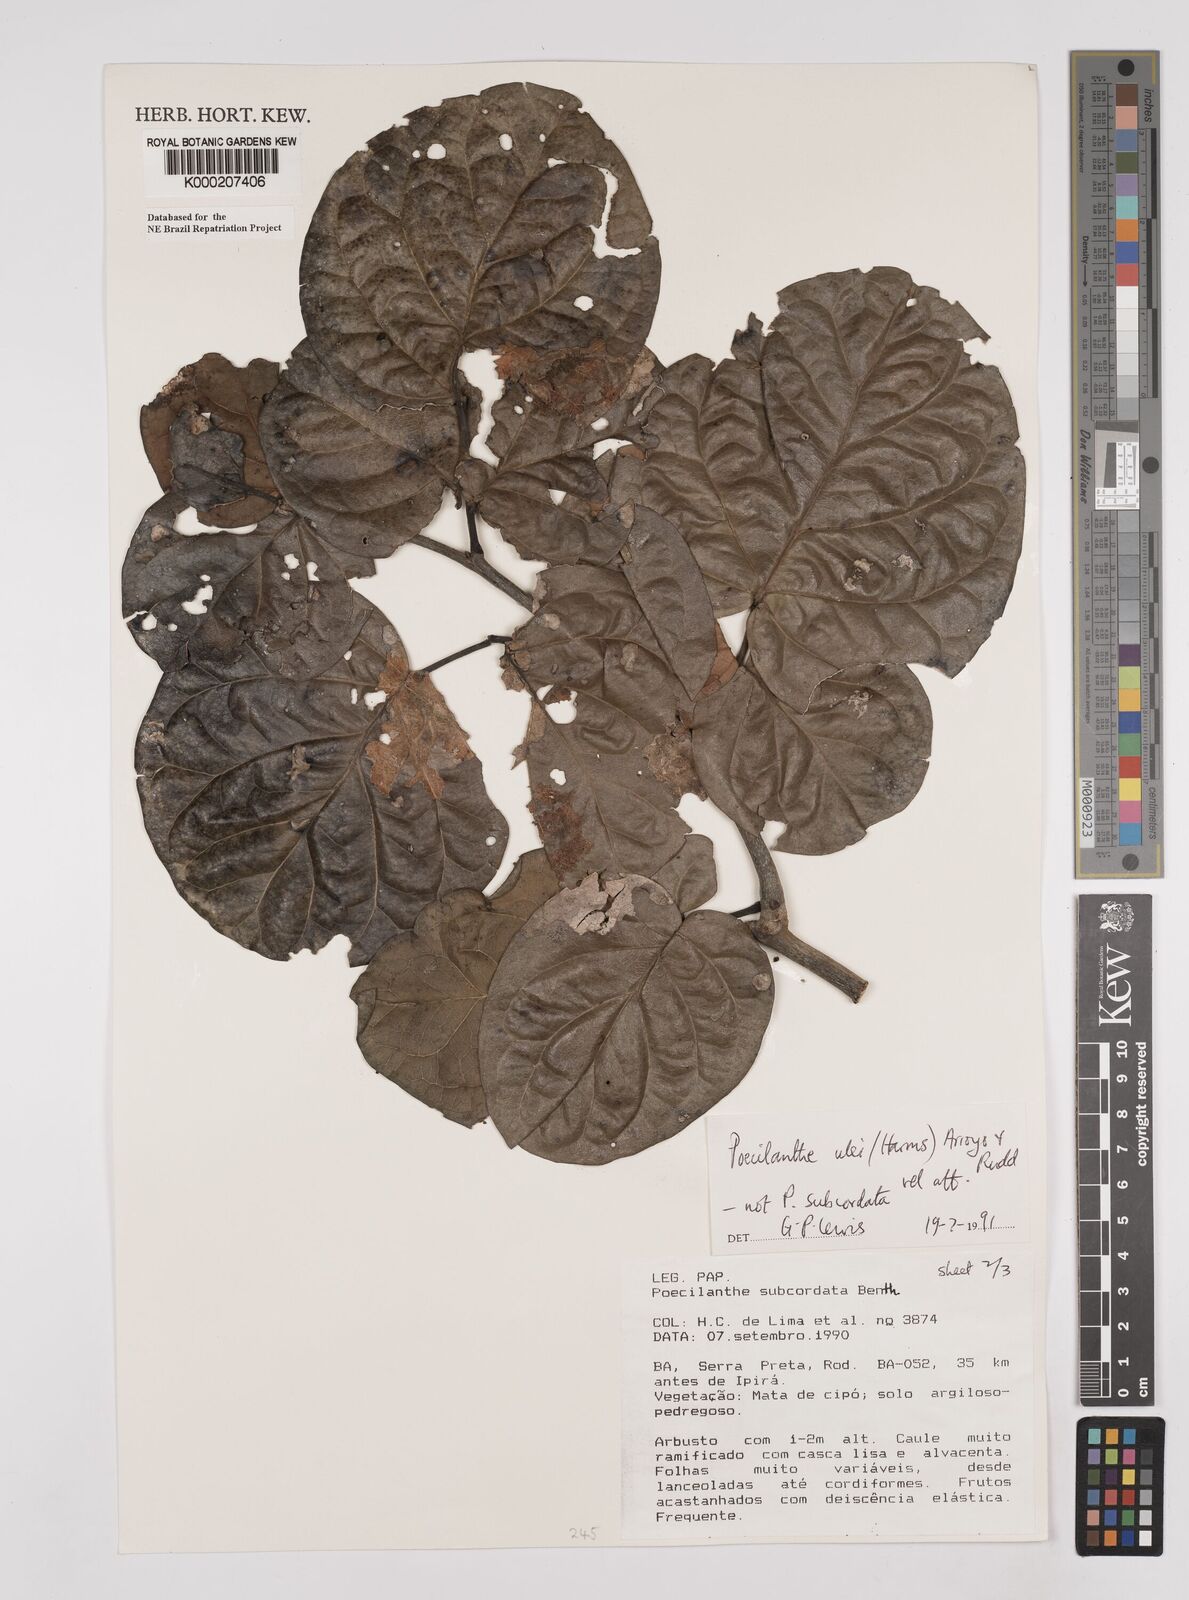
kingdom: Plantae
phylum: Tracheophyta
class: Magnoliopsida
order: Fabales
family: Fabaceae
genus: Poecilanthe
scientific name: Poecilanthe ulei
